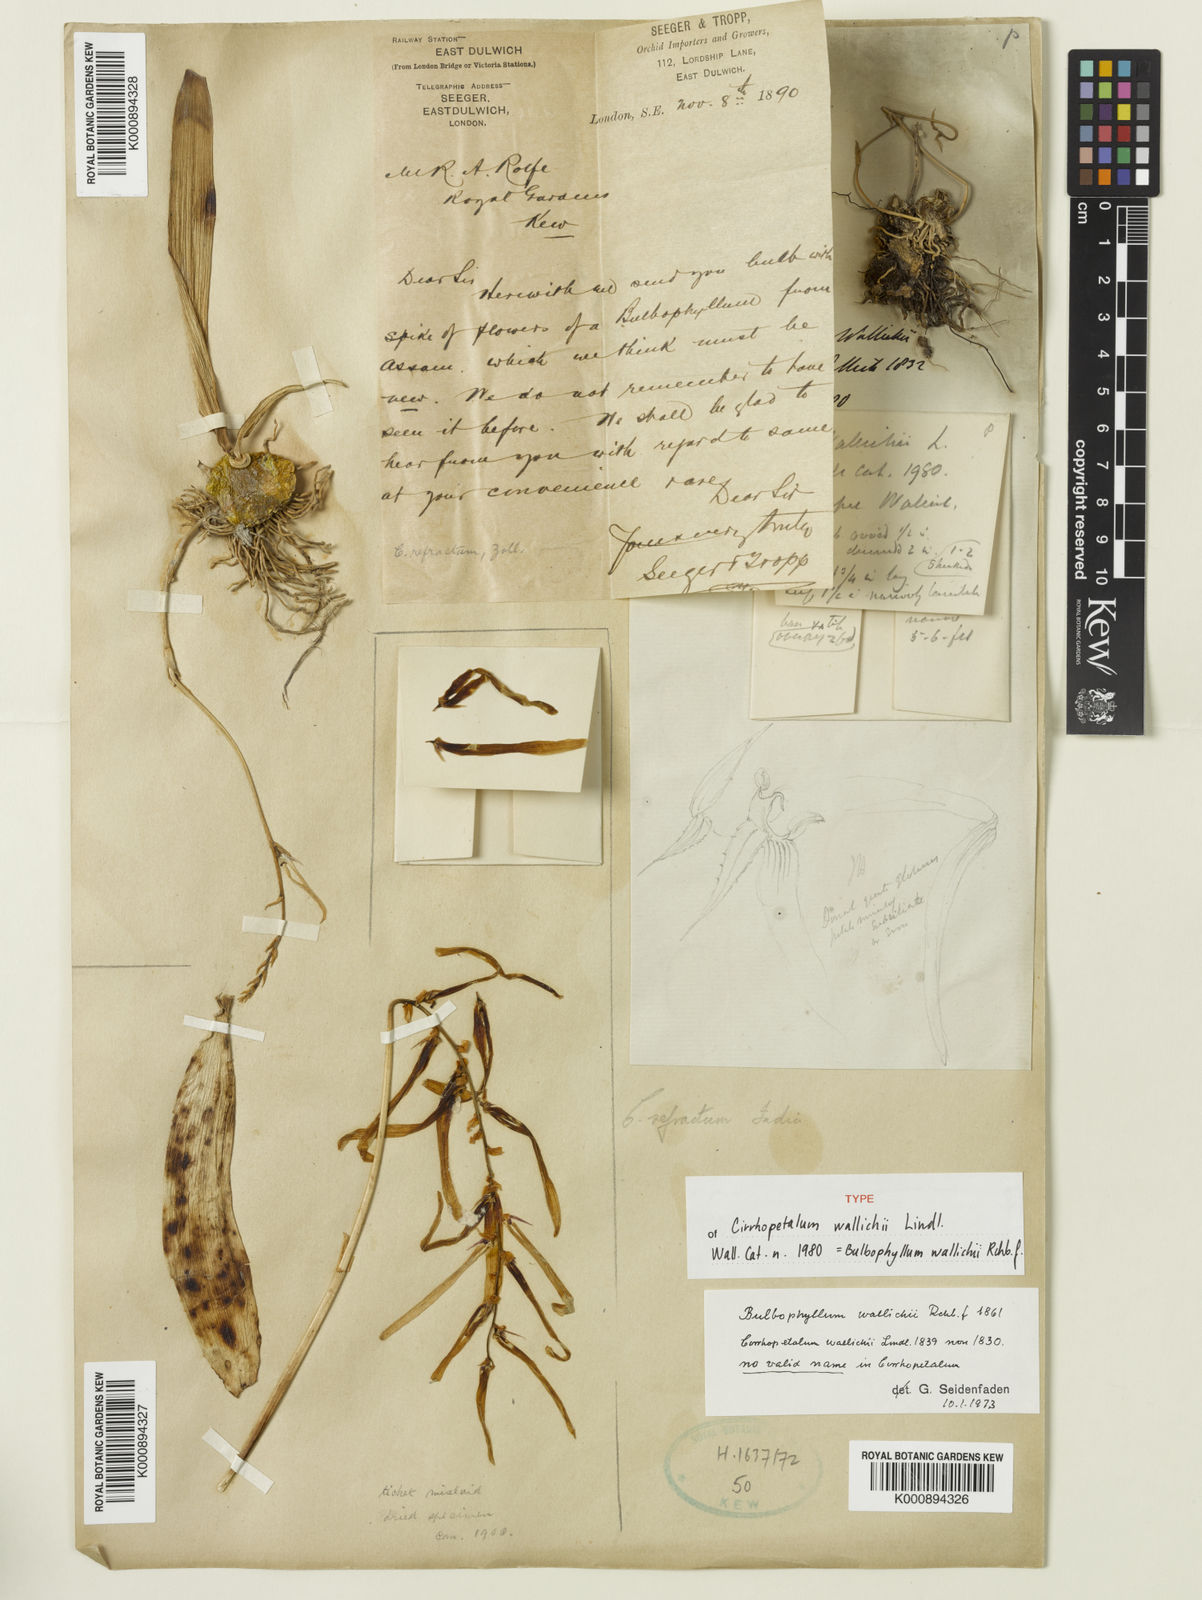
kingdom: Plantae
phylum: Tracheophyta
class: Liliopsida
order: Asparagales
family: Orchidaceae
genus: Bulbophyllum
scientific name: Bulbophyllum wallichii
